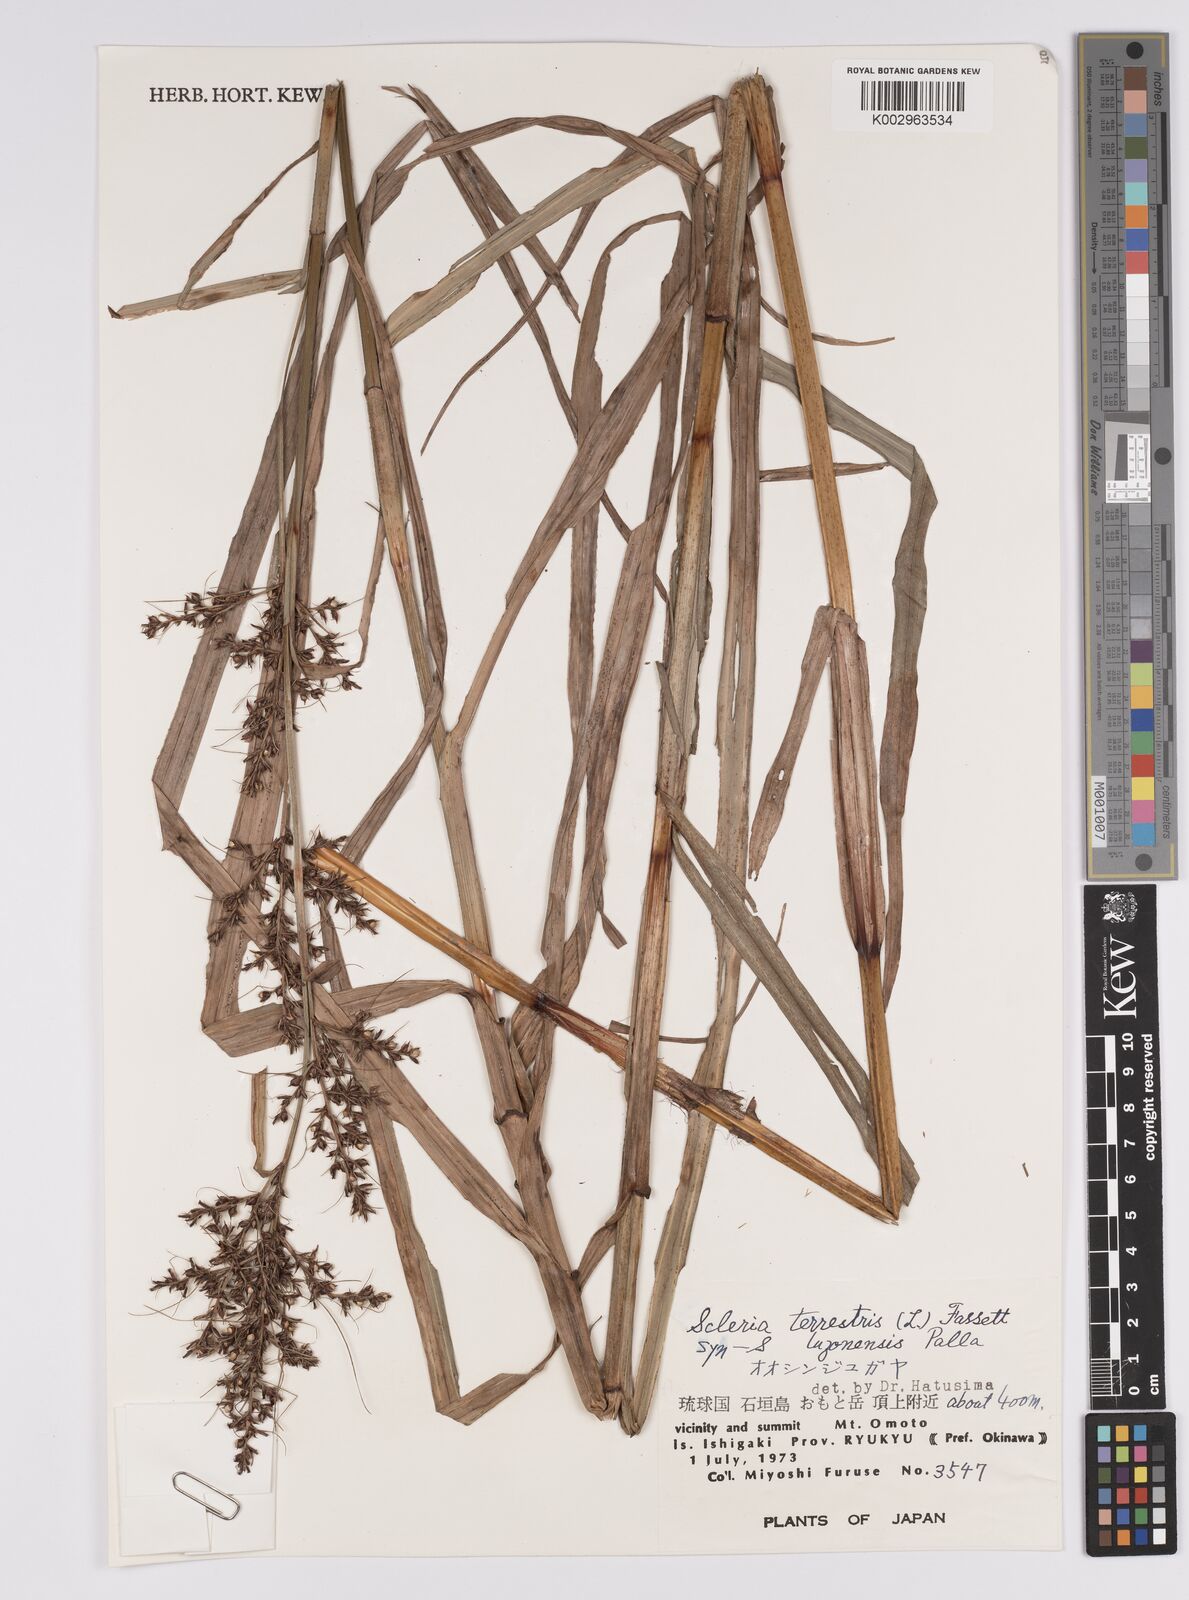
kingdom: Plantae
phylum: Tracheophyta
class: Liliopsida
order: Poales
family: Cyperaceae
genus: Scleria
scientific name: Scleria terrestris
